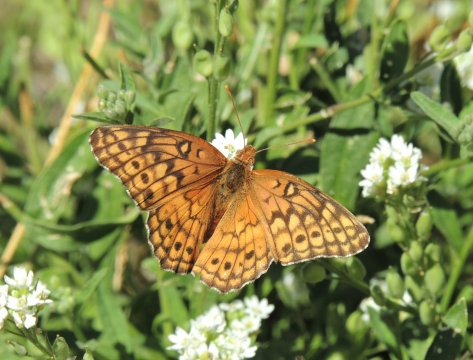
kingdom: Animalia
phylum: Arthropoda
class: Insecta
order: Lepidoptera
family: Nymphalidae
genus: Euptoieta
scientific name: Euptoieta claudia
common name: Variegated Fritillary
